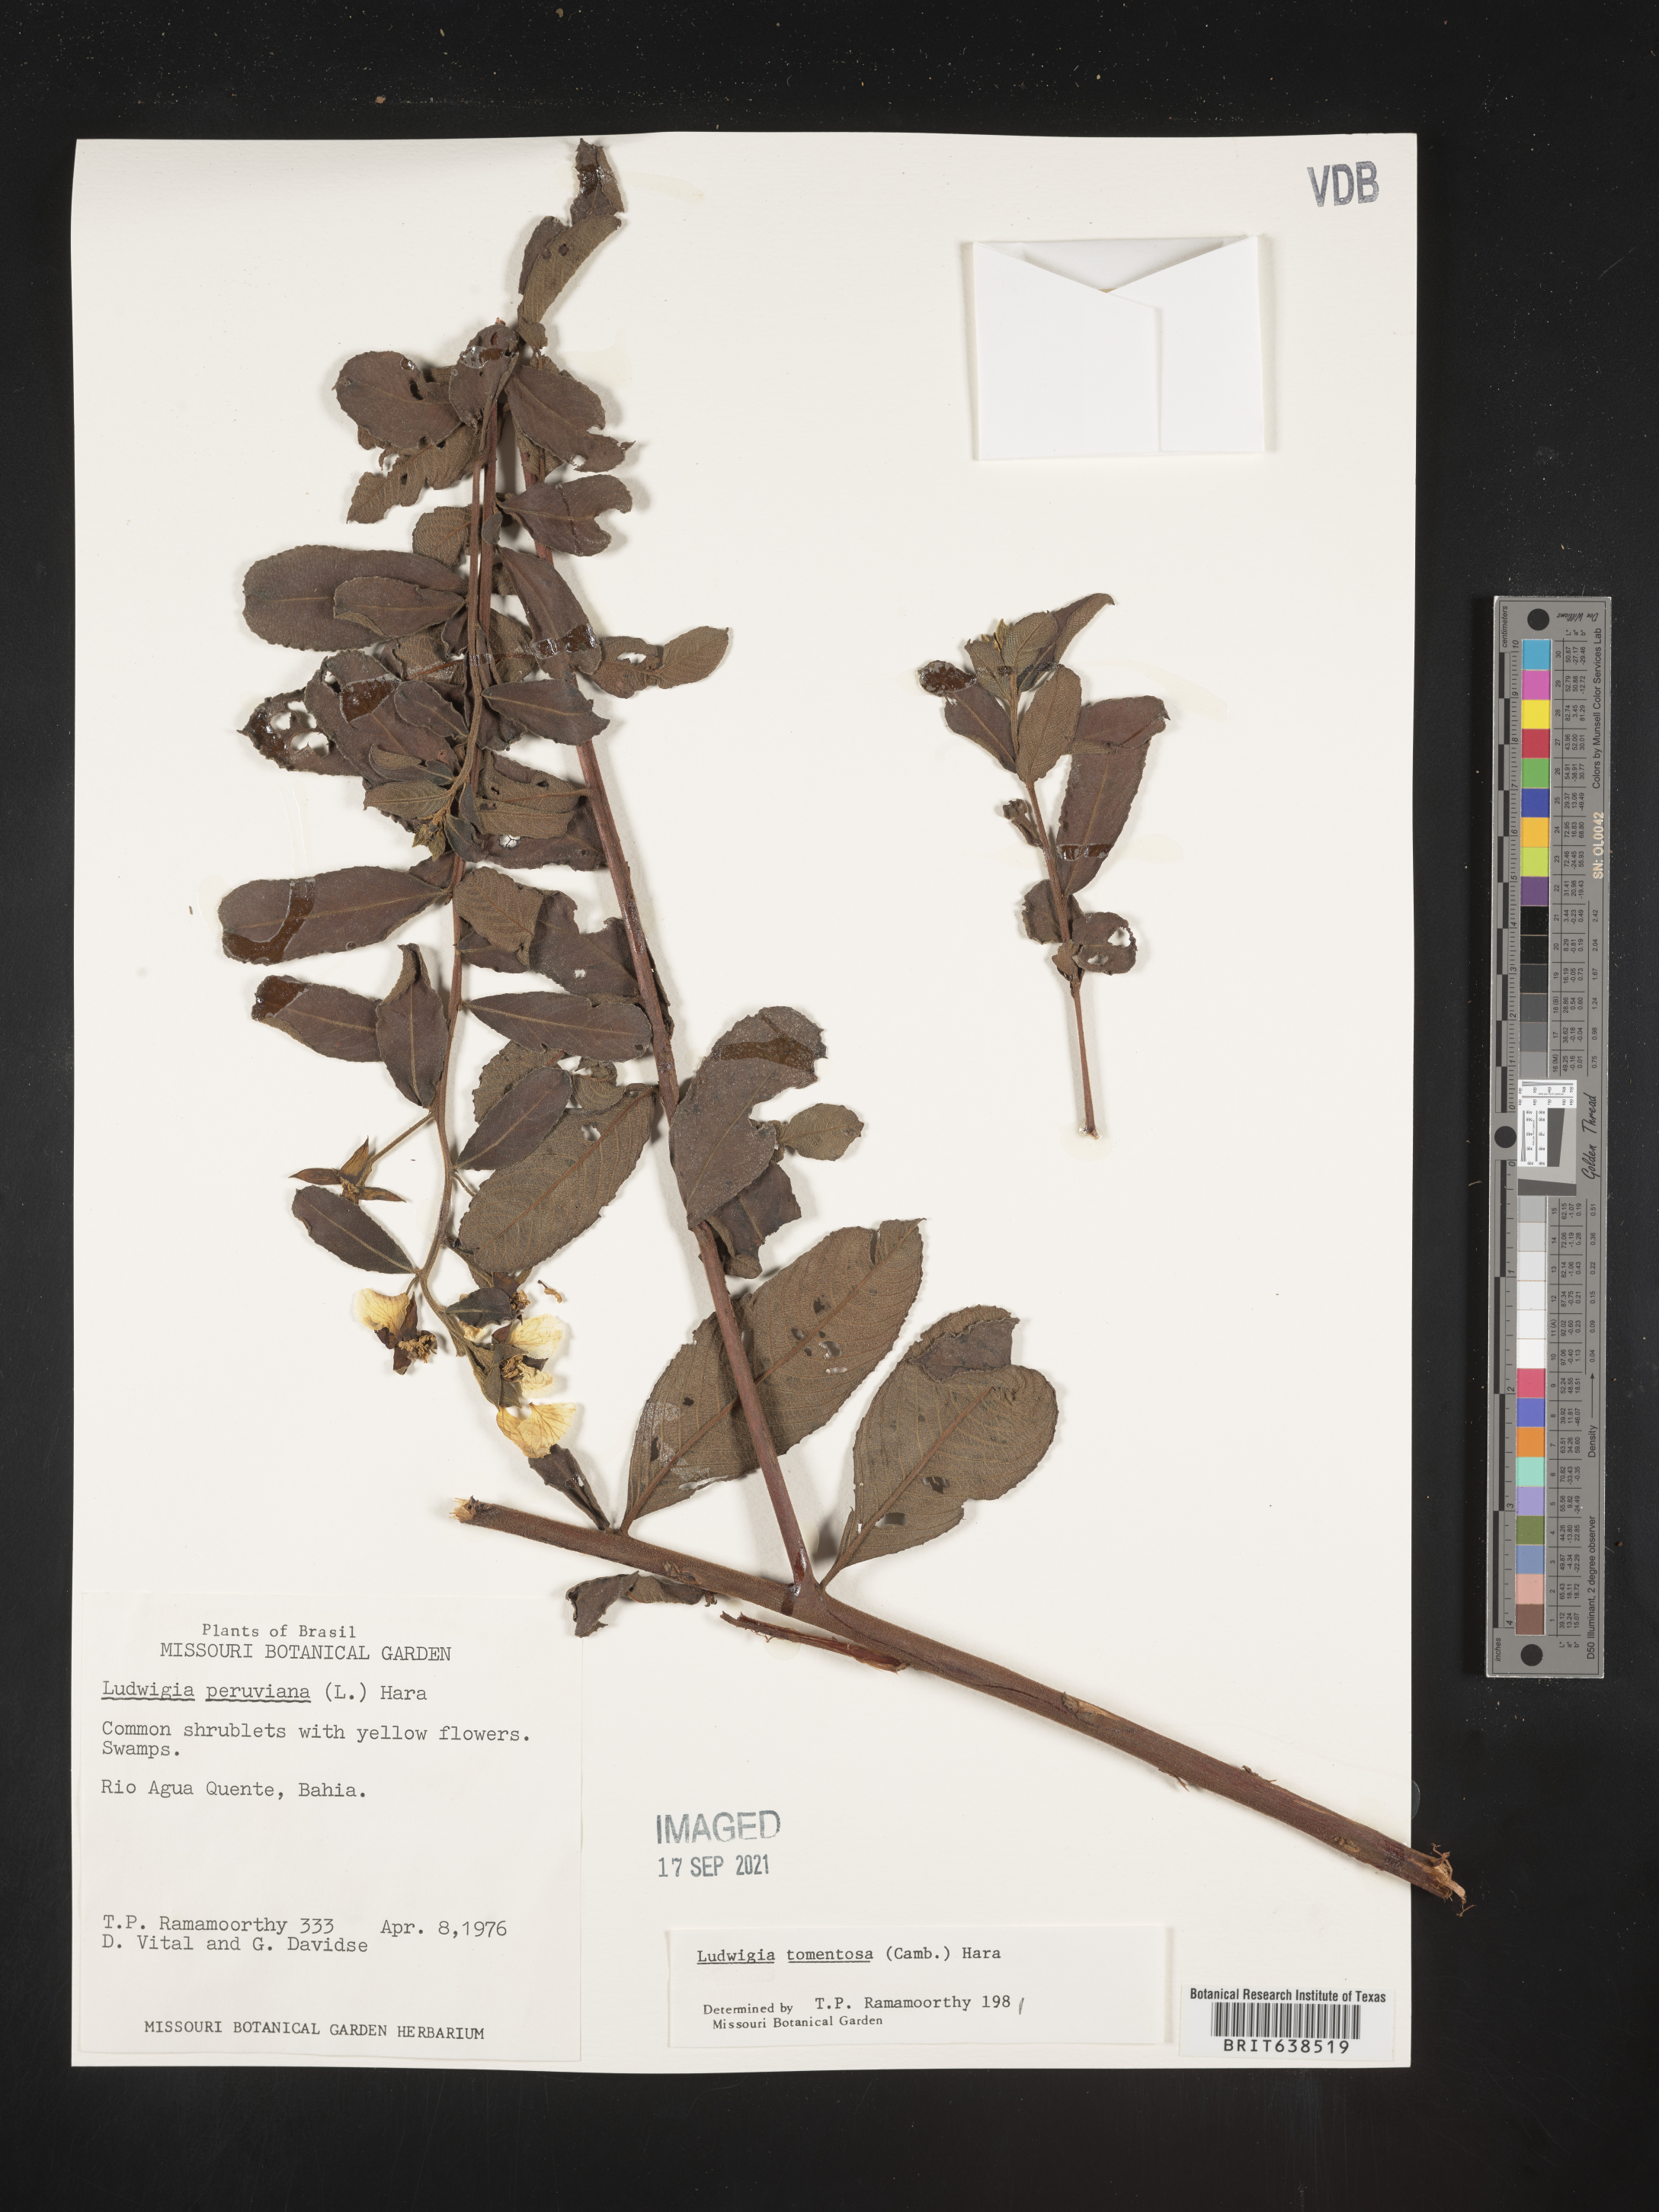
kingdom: Plantae
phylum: Tracheophyta
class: Magnoliopsida
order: Myrtales
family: Onagraceae
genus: Ludwigia
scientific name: Ludwigia
